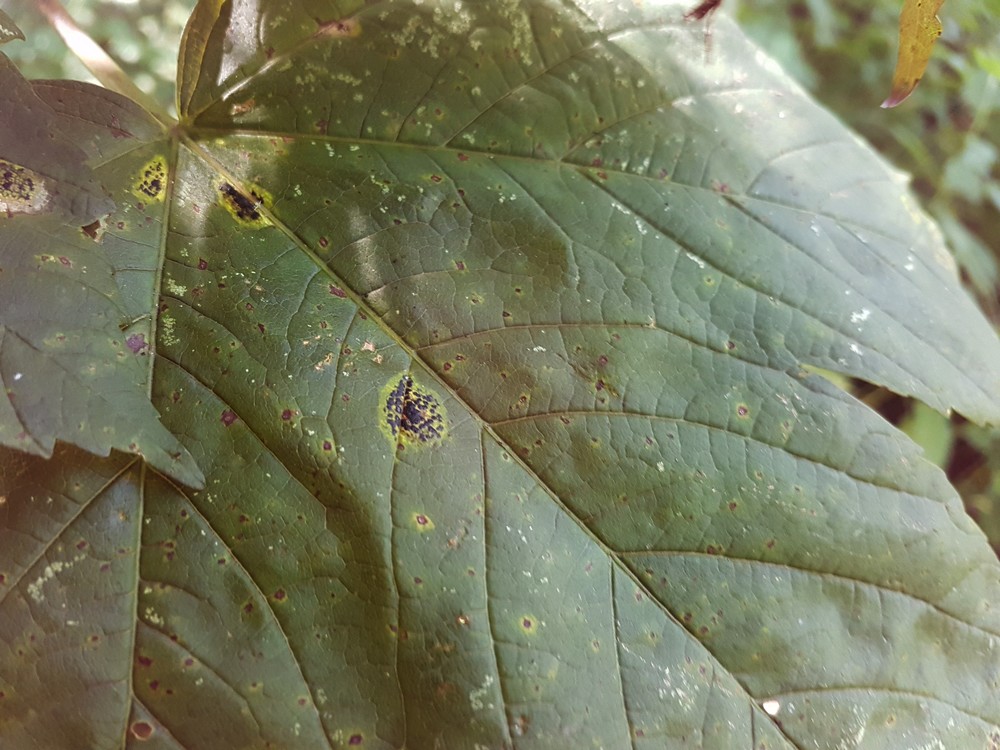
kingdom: Fungi
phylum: Ascomycota
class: Leotiomycetes
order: Rhytismatales
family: Rhytismataceae
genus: Rhytisma
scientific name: Rhytisma acerinum
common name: ahorn-rynkeplet
